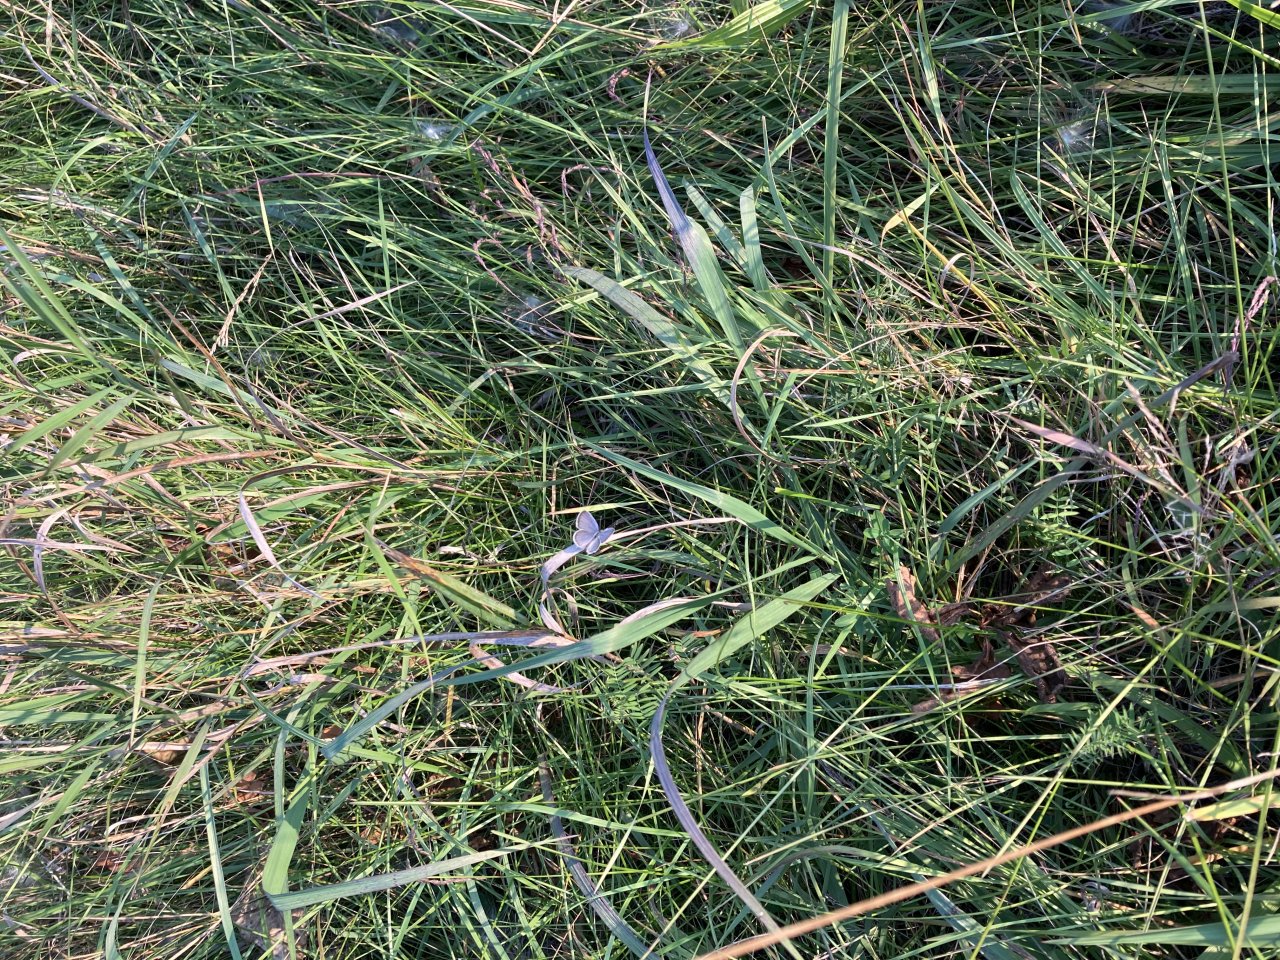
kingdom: Animalia
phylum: Arthropoda
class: Insecta
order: Lepidoptera
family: Lycaenidae
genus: Elkalyce
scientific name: Elkalyce comyntas
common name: Eastern Tailed-Blue
